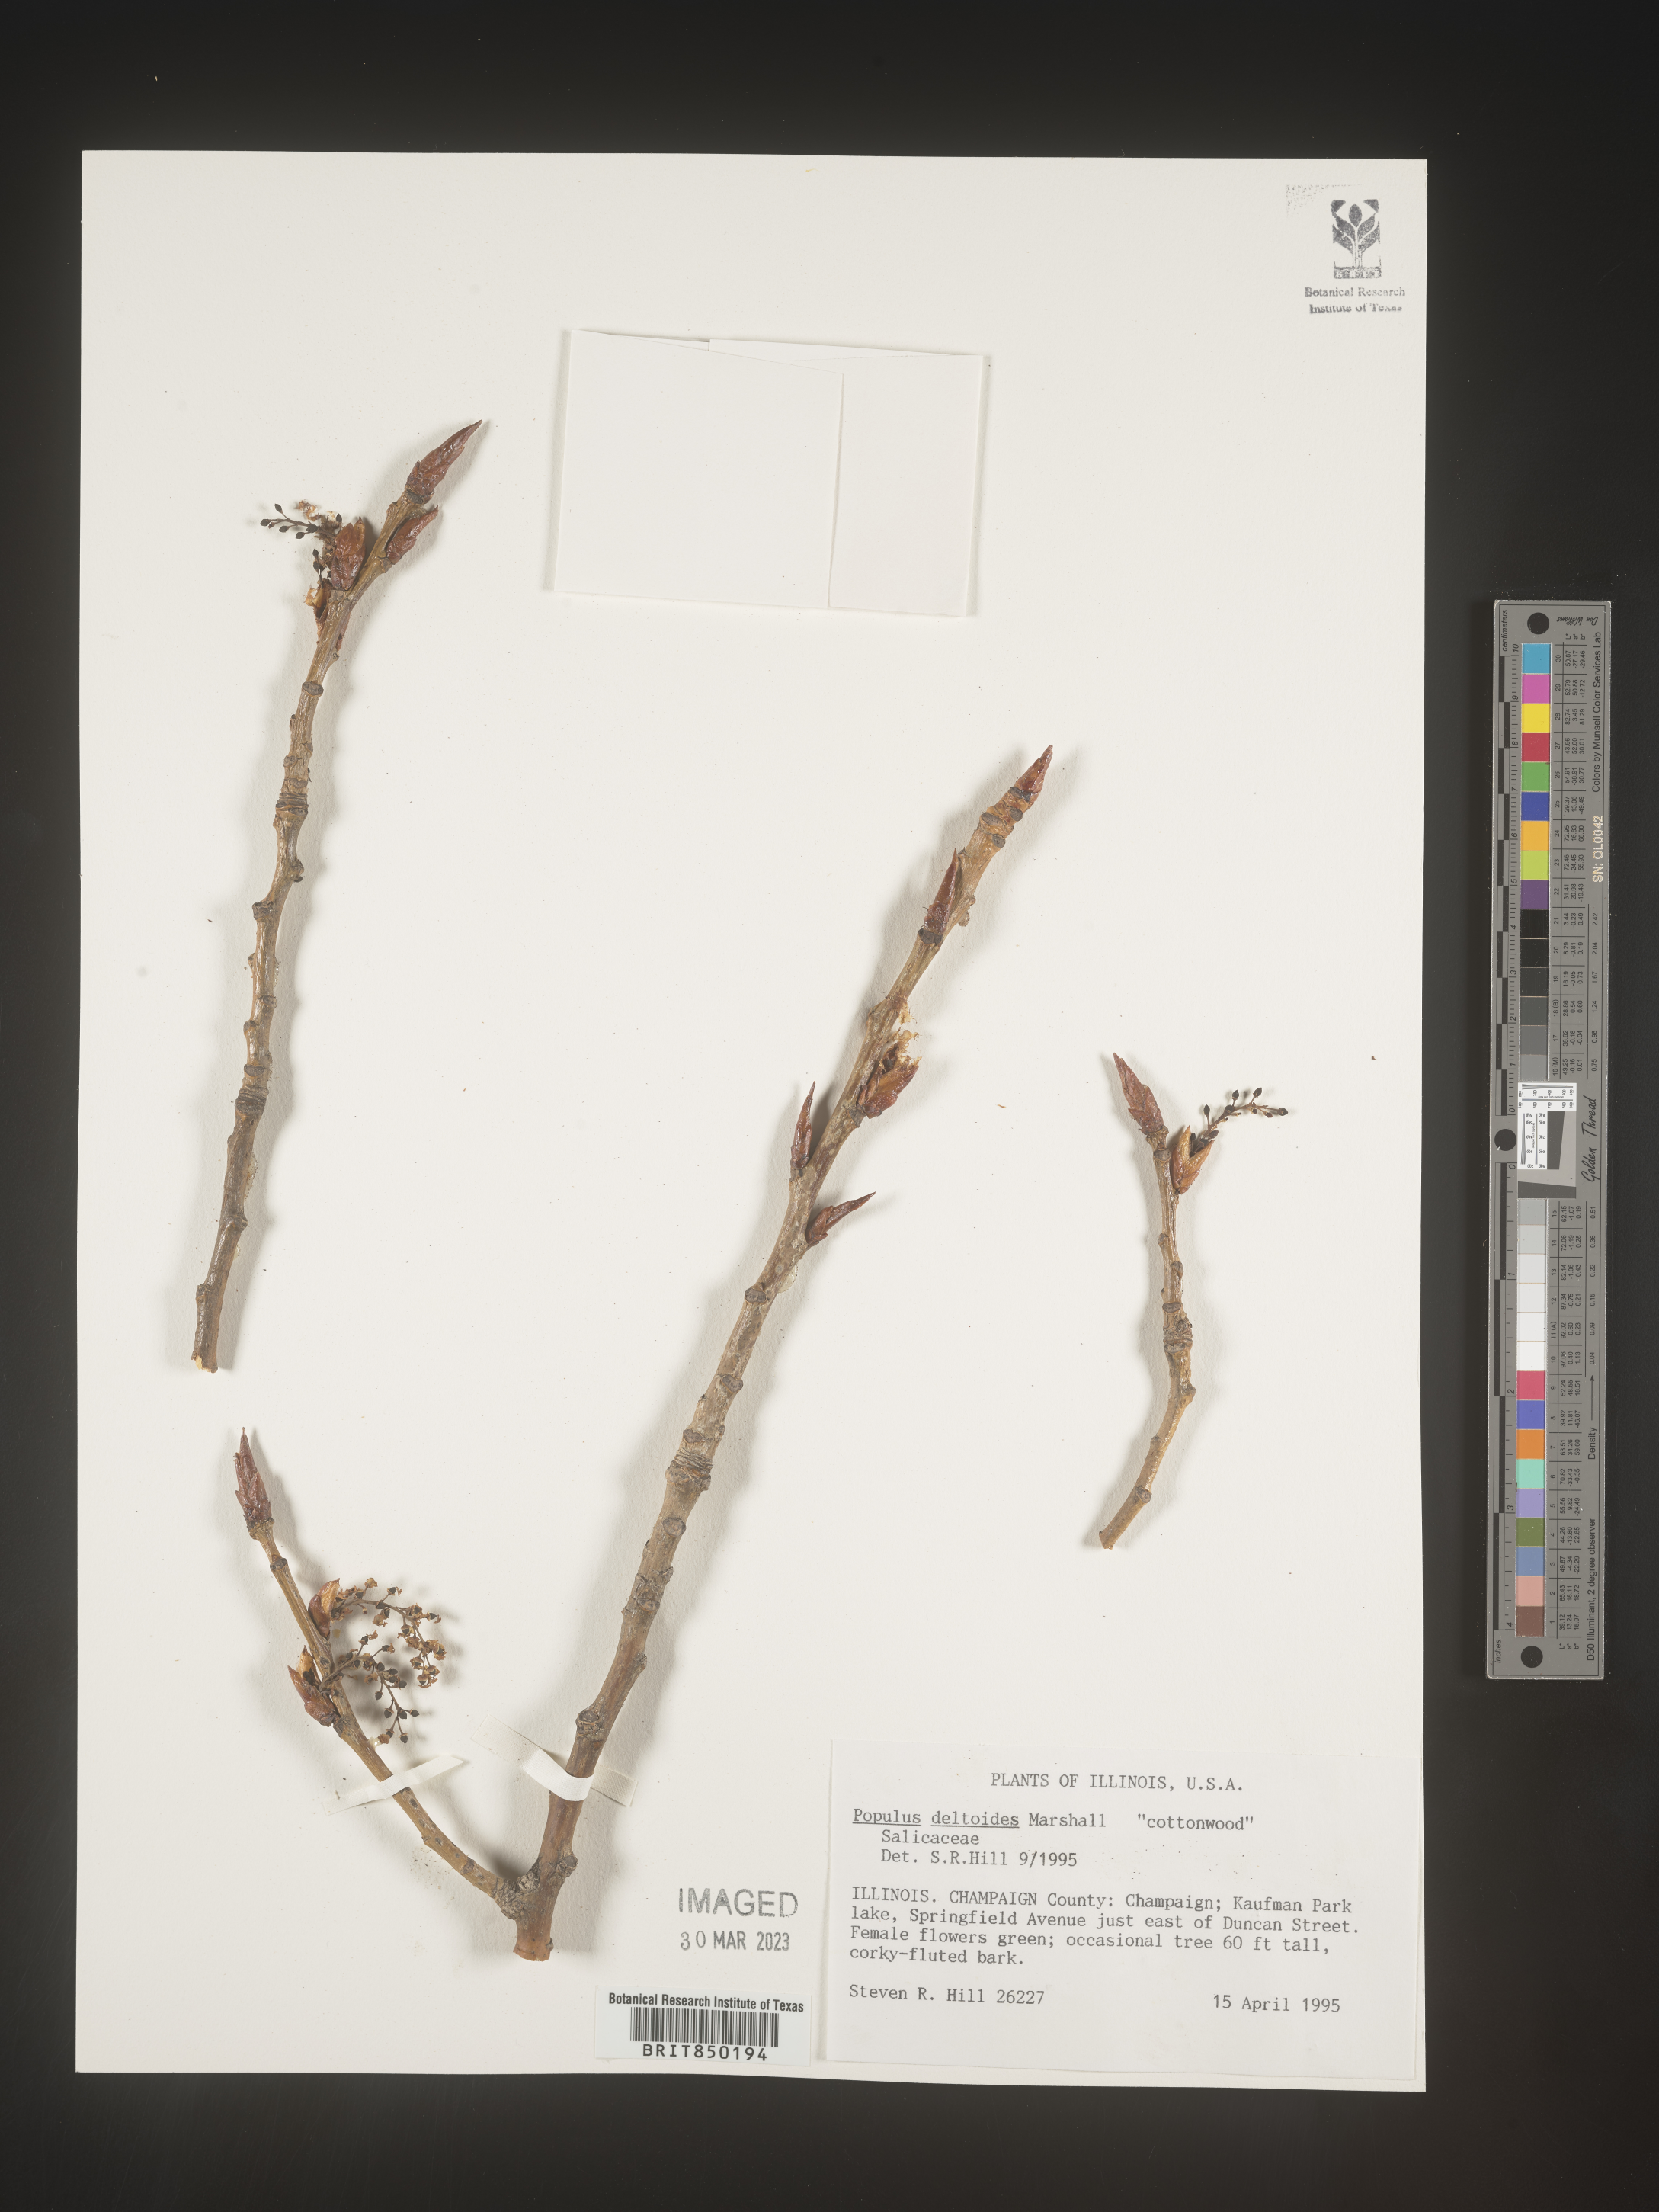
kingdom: Plantae
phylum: Tracheophyta
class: Magnoliopsida
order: Malpighiales
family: Salicaceae
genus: Populus
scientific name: Populus deltoides
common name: Eastern cottonwood
